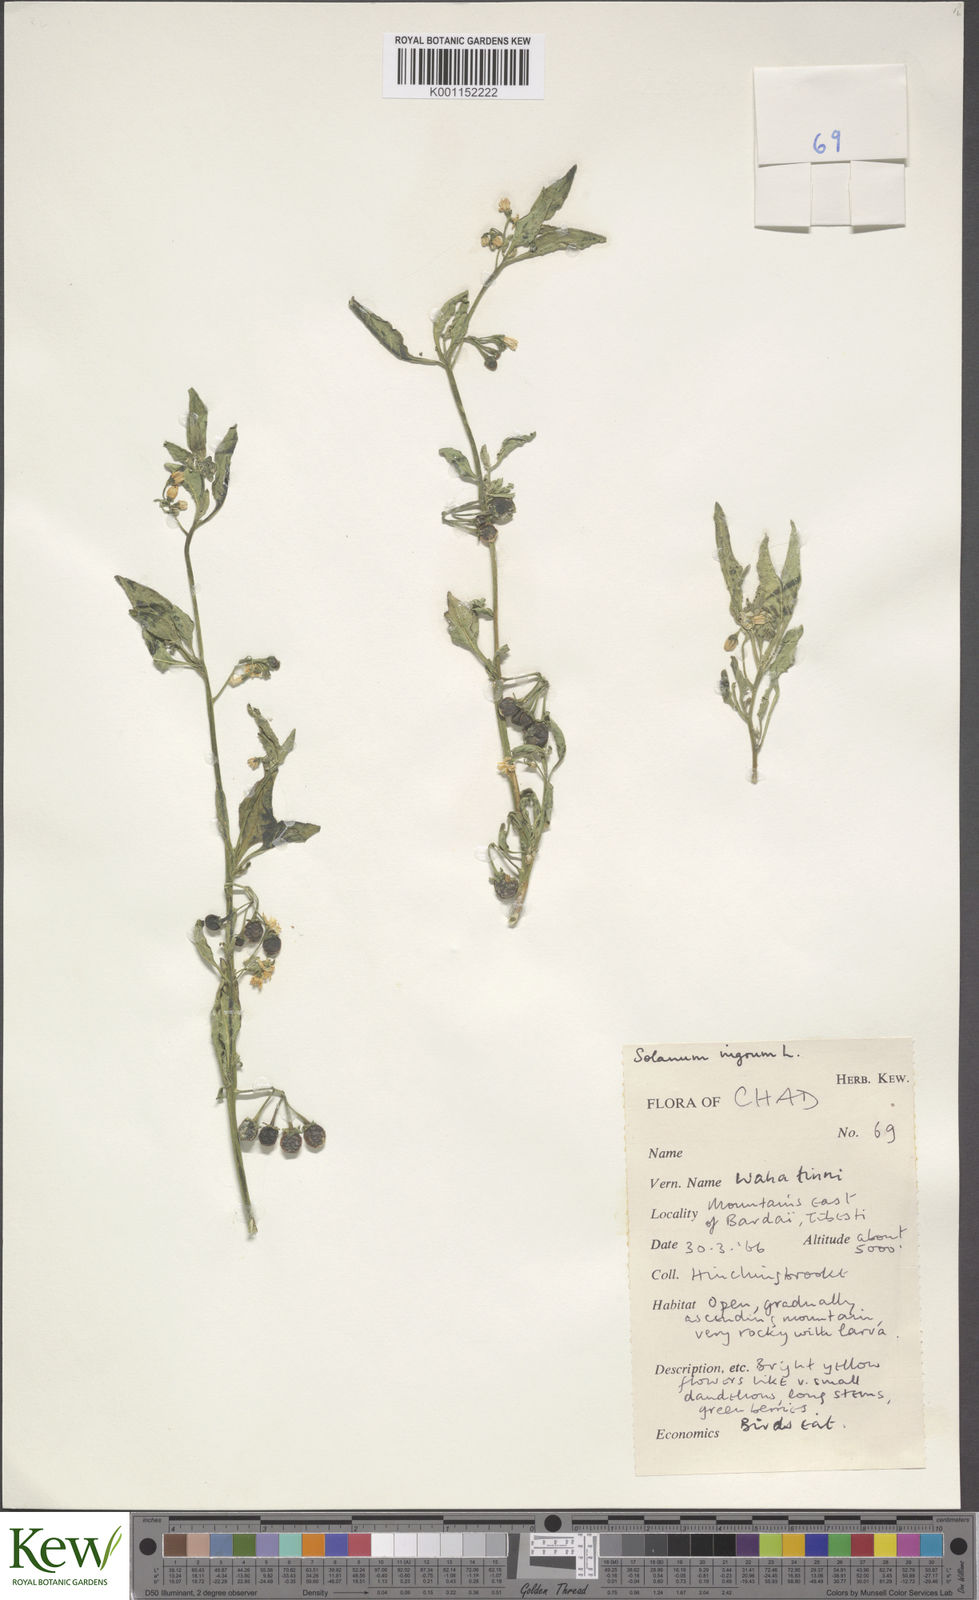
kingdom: Plantae
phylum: Tracheophyta
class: Magnoliopsida
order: Solanales
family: Solanaceae
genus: Solanum
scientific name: Solanum nigrum
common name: Black nightshade
